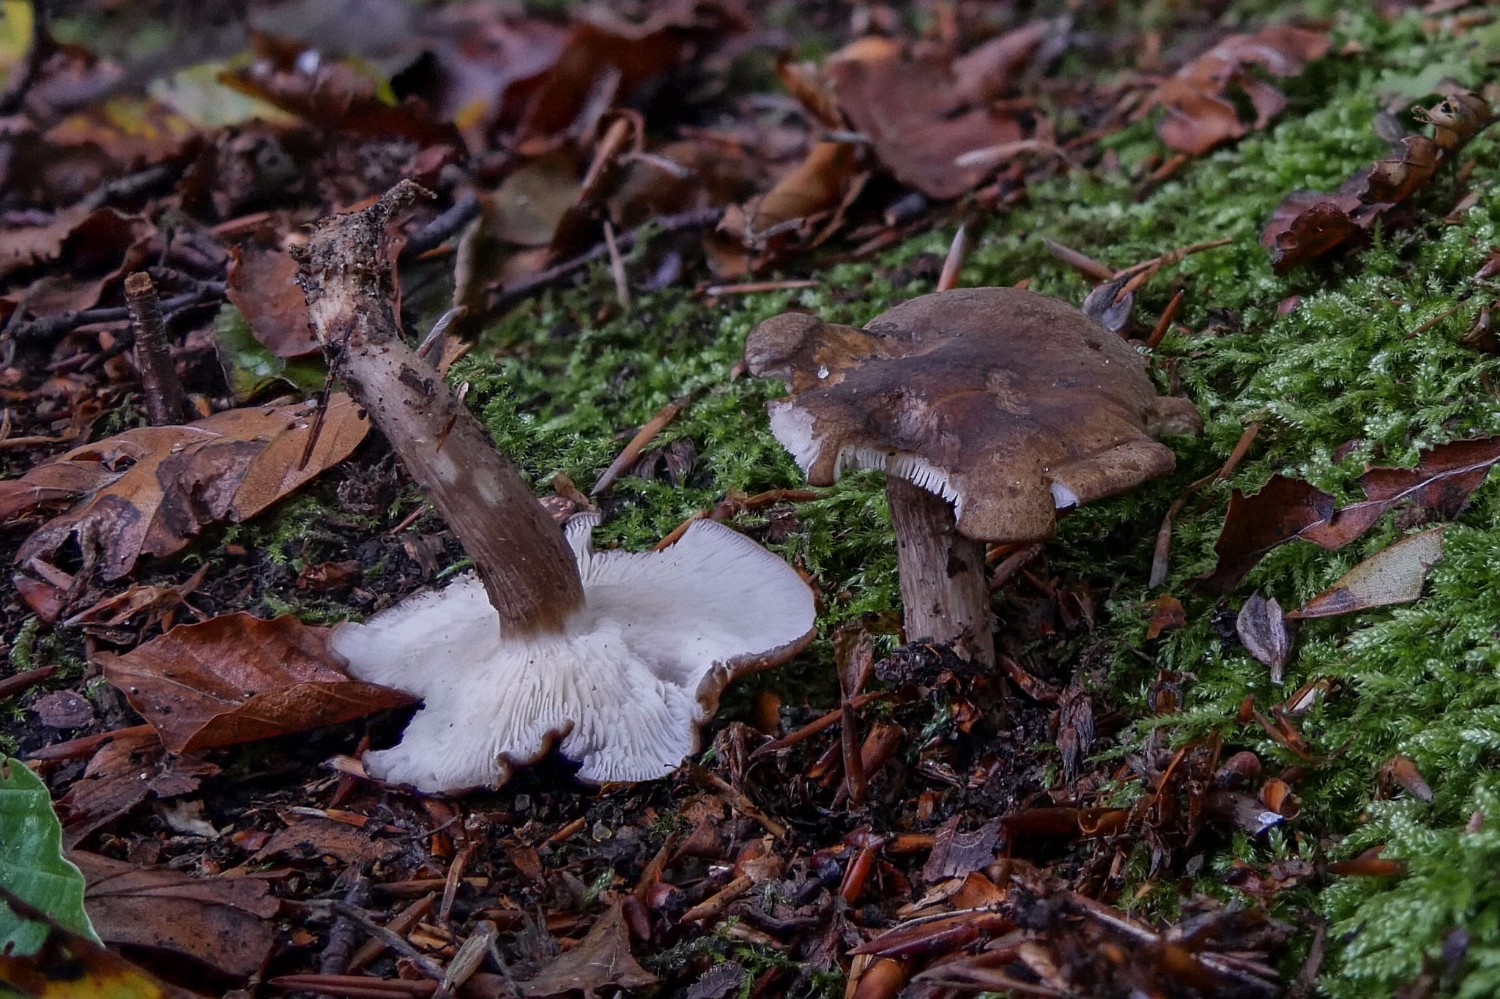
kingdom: Fungi
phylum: Basidiomycota
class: Agaricomycetes
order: Agaricales
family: Lyophyllaceae
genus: Calocybe
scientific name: Calocybe obscurissima
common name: mørk fagerhat
